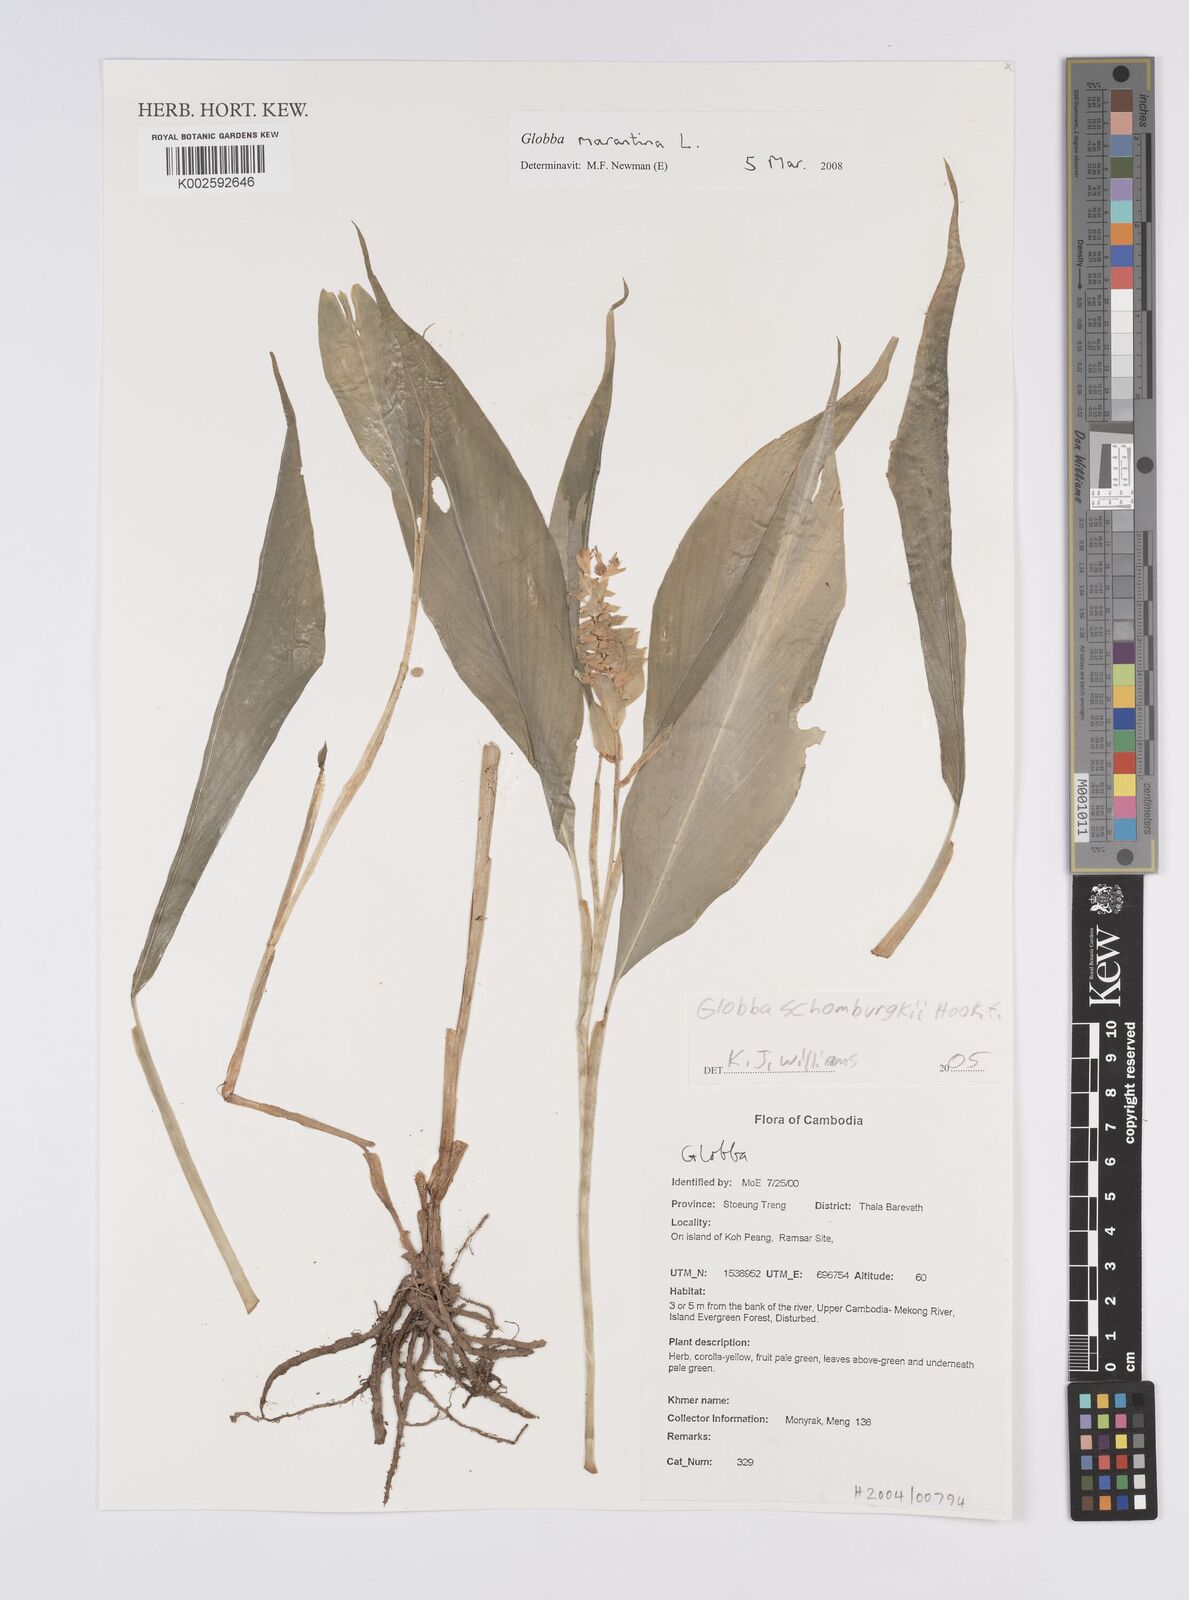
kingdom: Plantae
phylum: Tracheophyta
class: Liliopsida
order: Zingiberales
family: Zingiberaceae
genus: Globba
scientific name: Globba marantina
